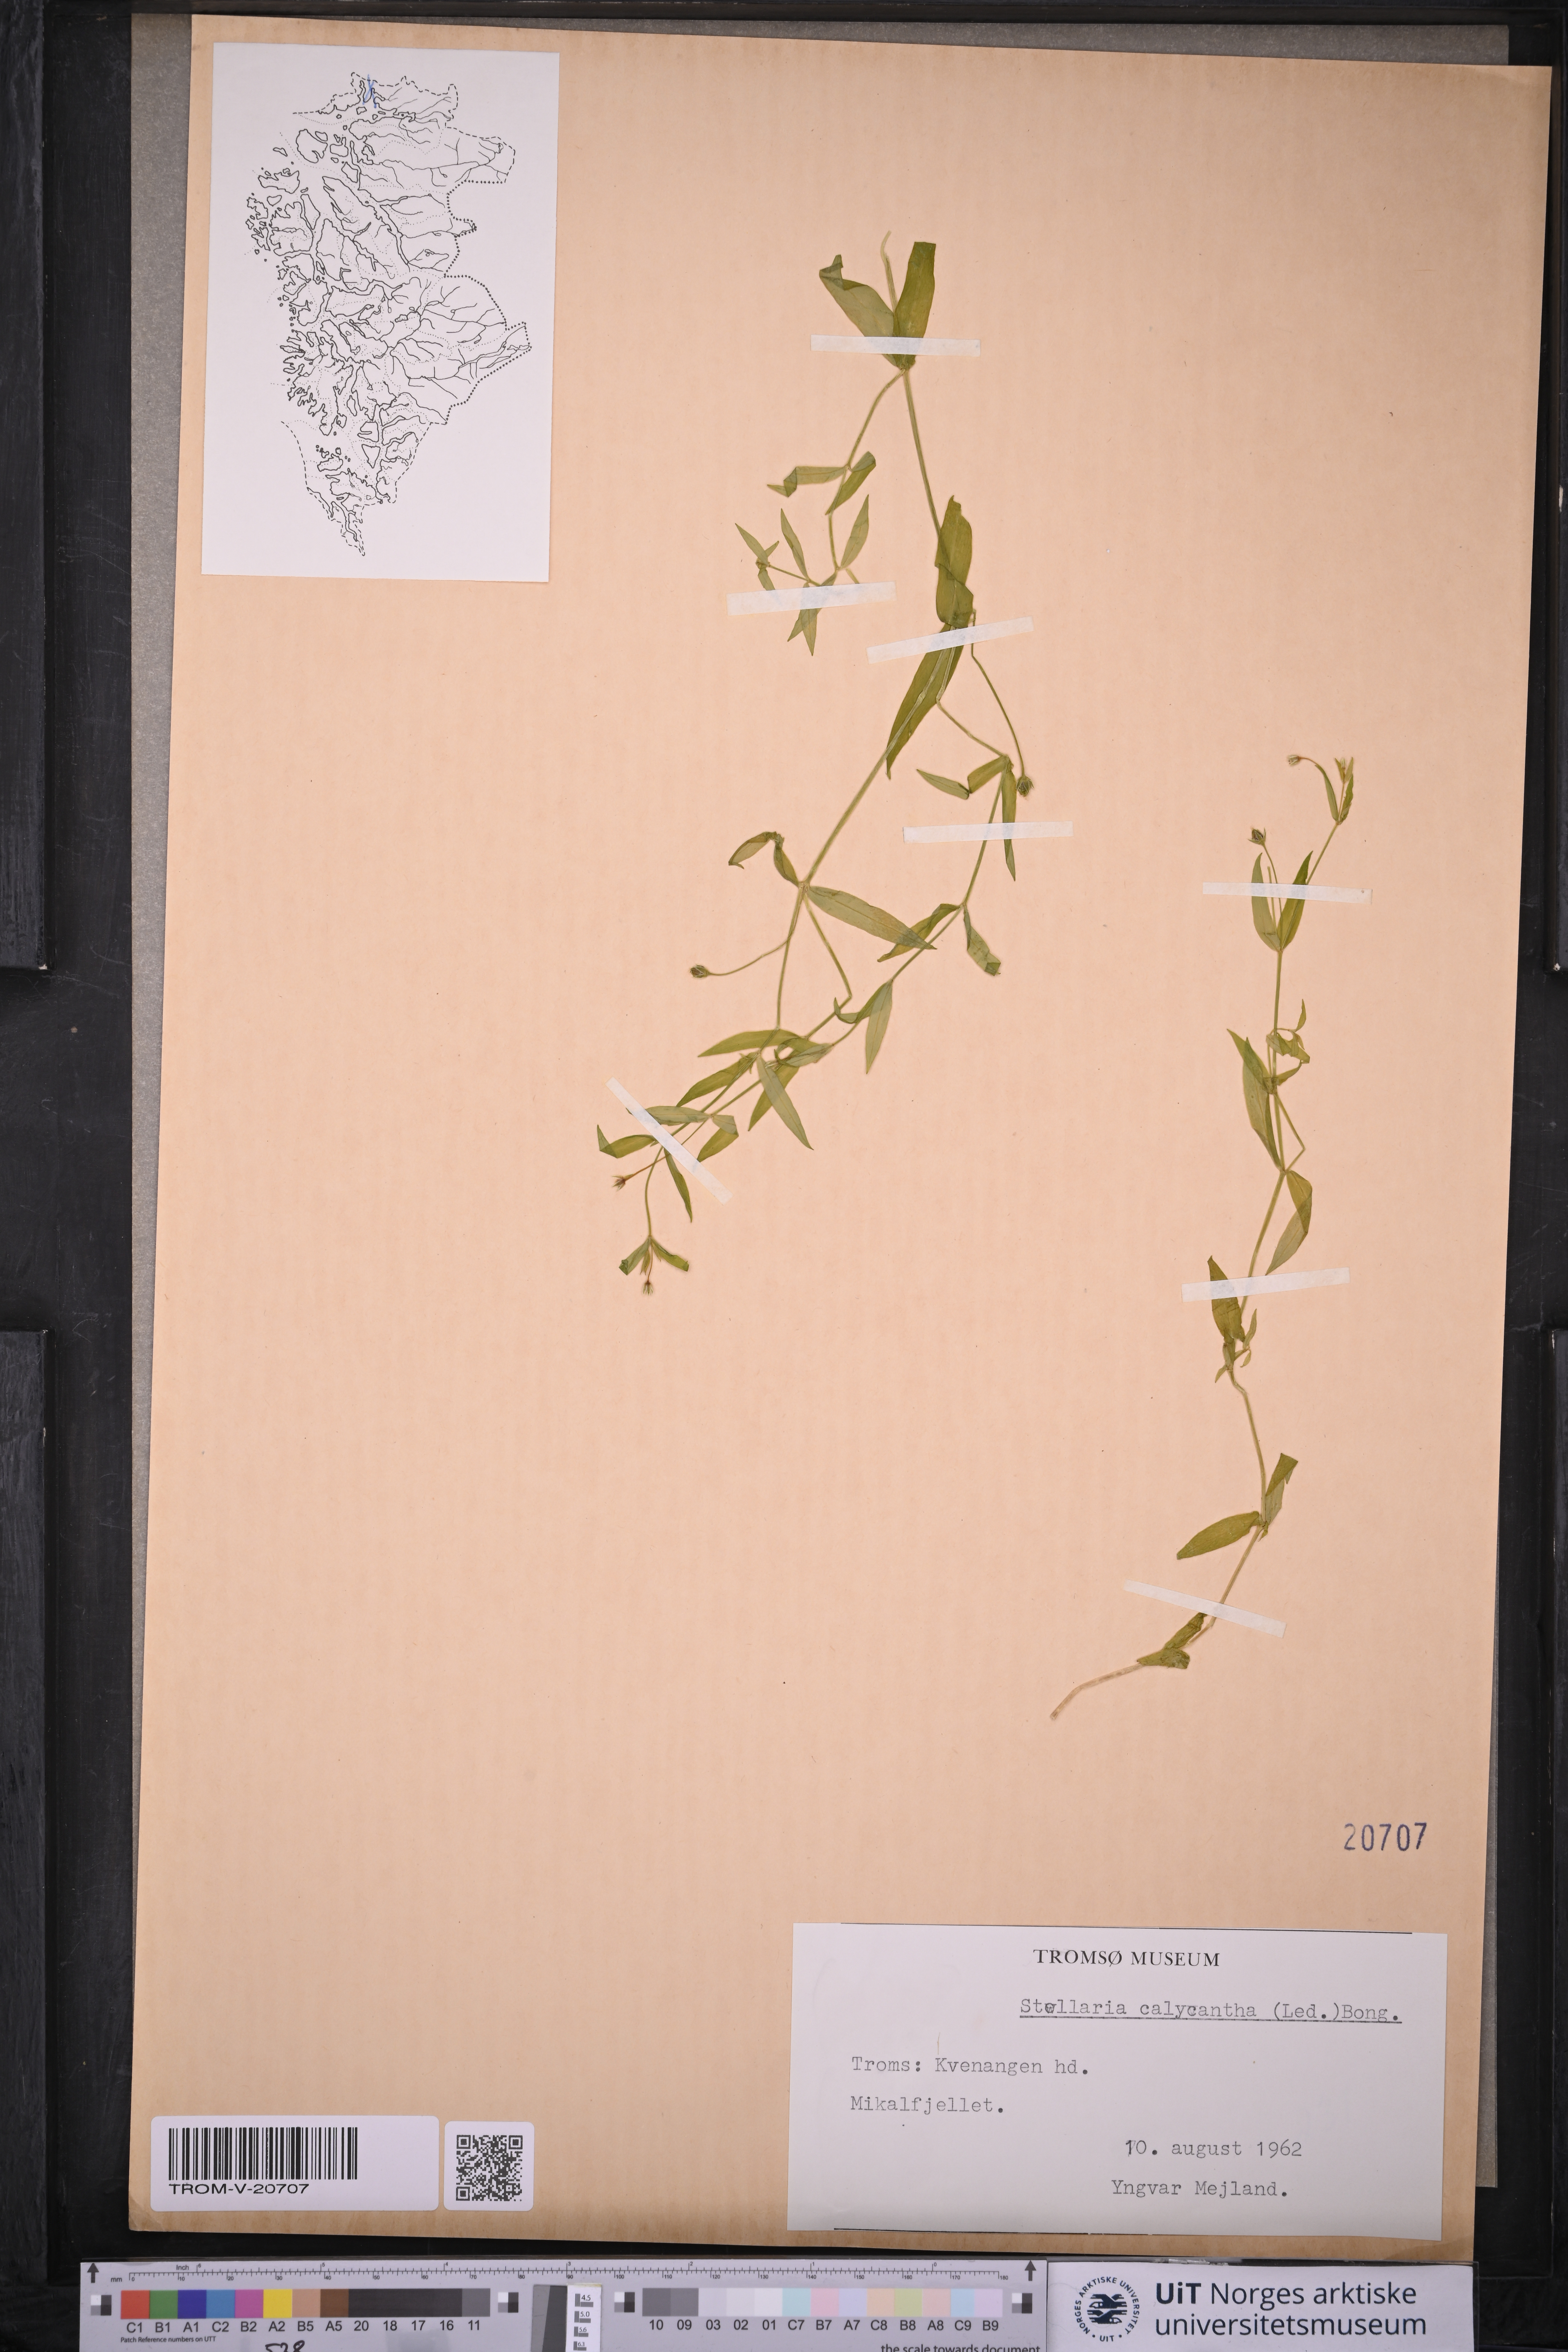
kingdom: Plantae
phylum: Tracheophyta
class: Magnoliopsida
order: Caryophyllales
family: Caryophyllaceae
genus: Stellaria
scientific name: Stellaria borealis
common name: Boreal starwort
